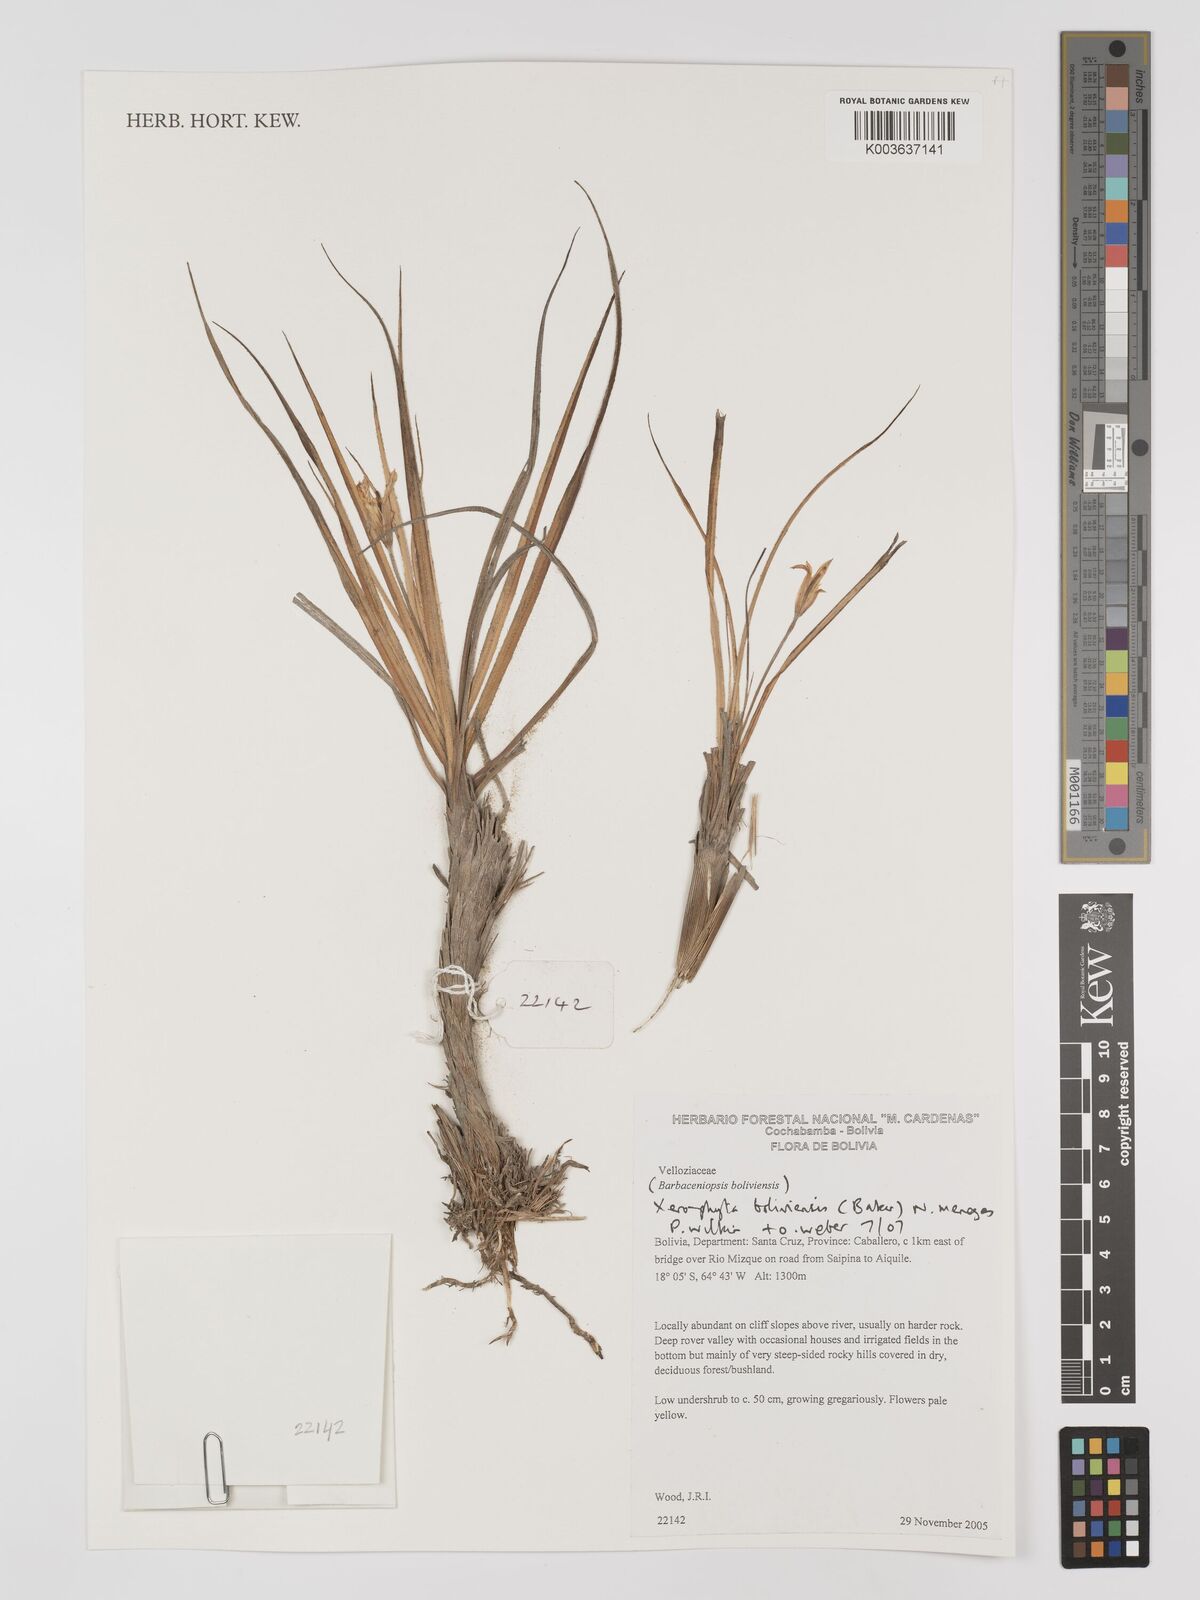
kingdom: Plantae
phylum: Tracheophyta
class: Liliopsida
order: Pandanales
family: Velloziaceae
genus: Barbaceniopsis
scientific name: Barbaceniopsis boliviensis
